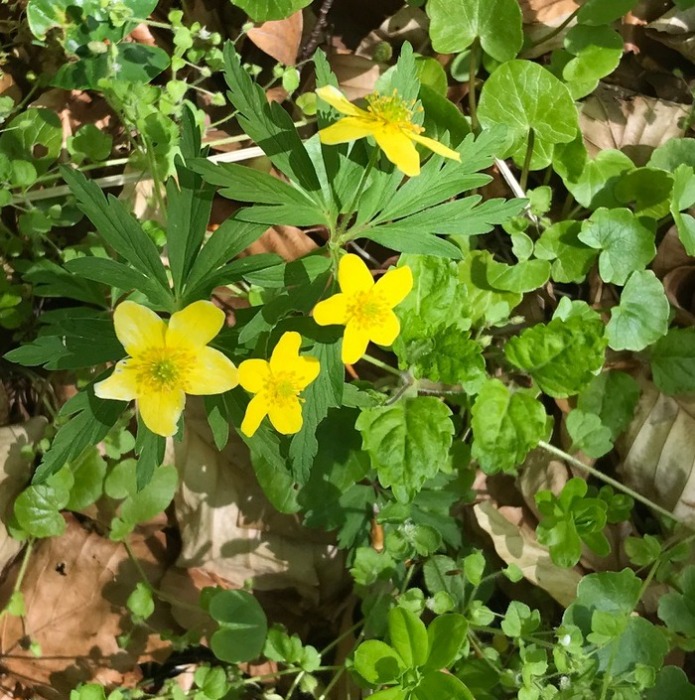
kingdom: Plantae
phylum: Tracheophyta
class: Magnoliopsida
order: Ranunculales
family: Ranunculaceae
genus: Anemone
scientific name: Anemone ranunculoides
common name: Gul anemone
